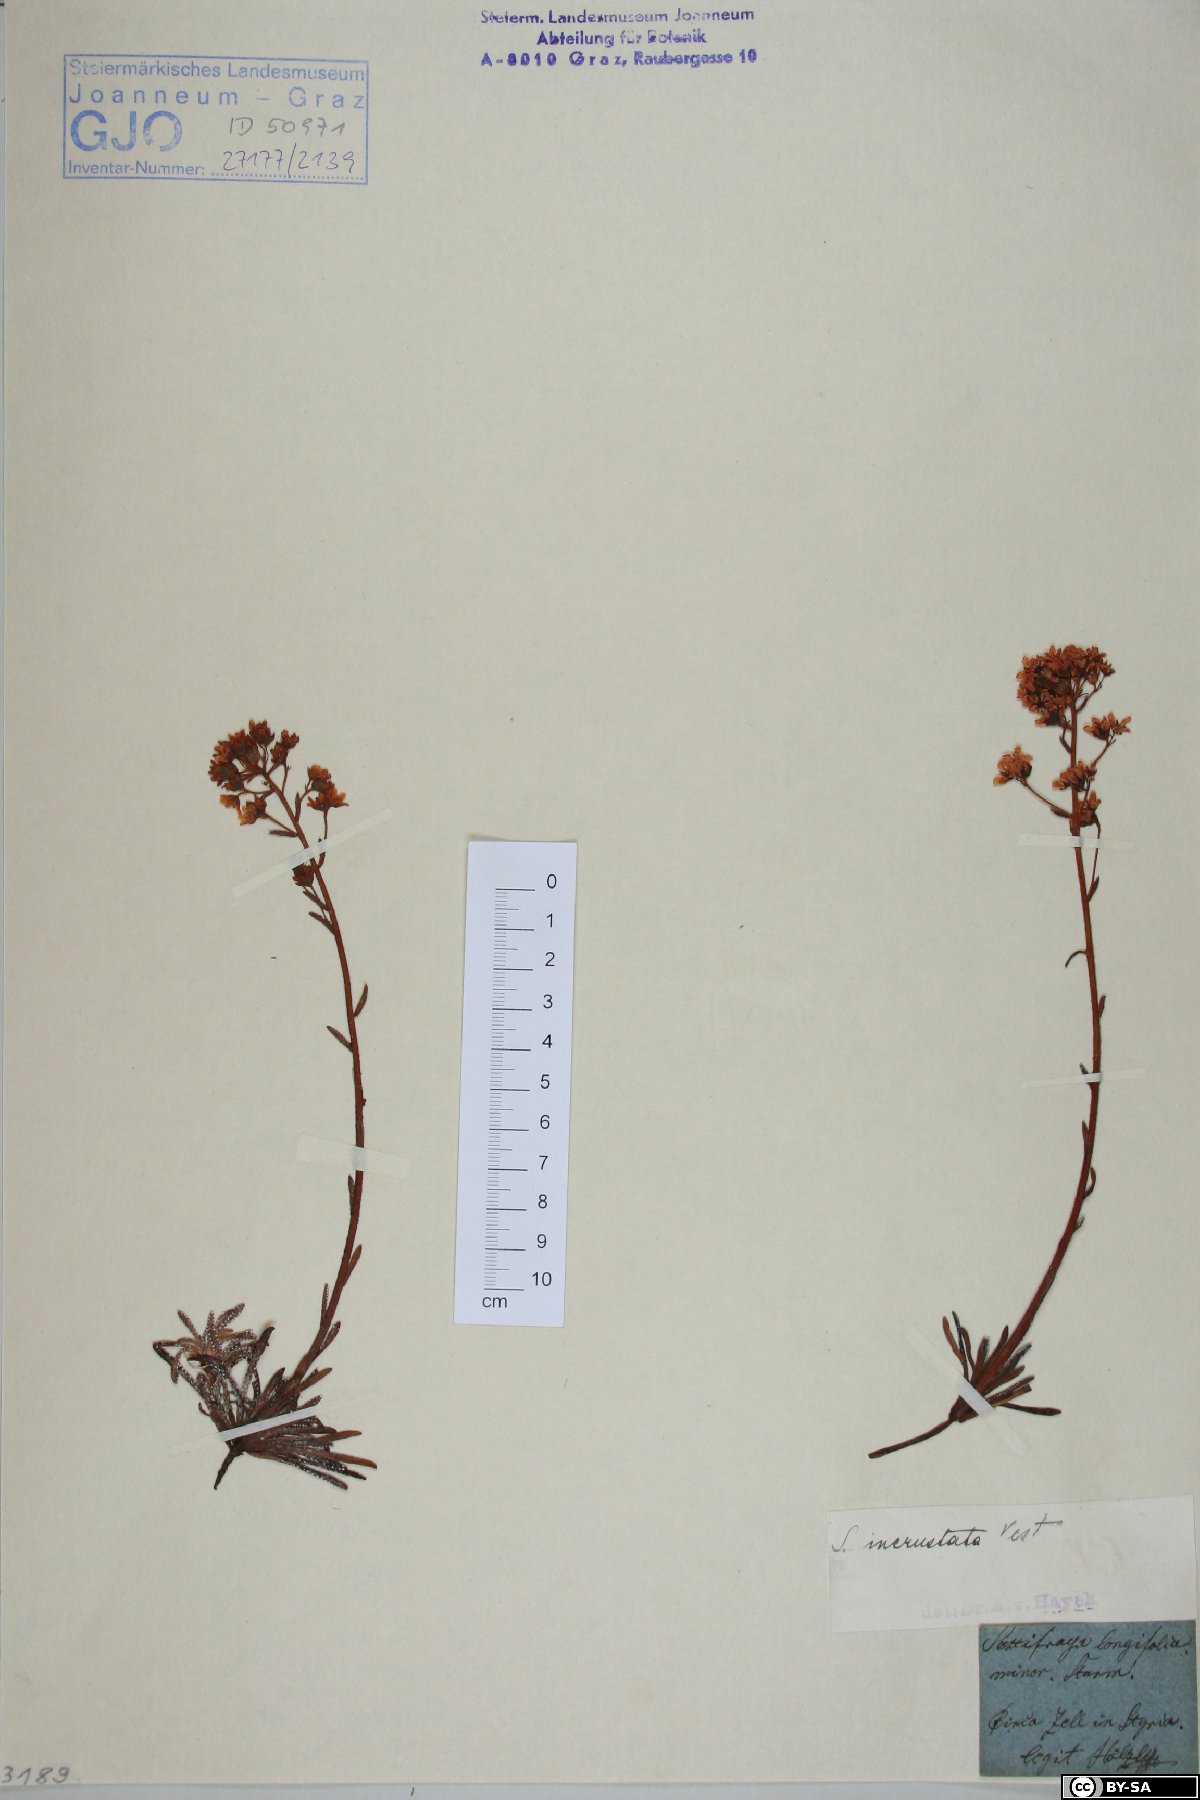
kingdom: Plantae
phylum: Tracheophyta
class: Magnoliopsida
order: Saxifragales
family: Saxifragaceae
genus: Saxifraga
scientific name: Saxifraga crustata
